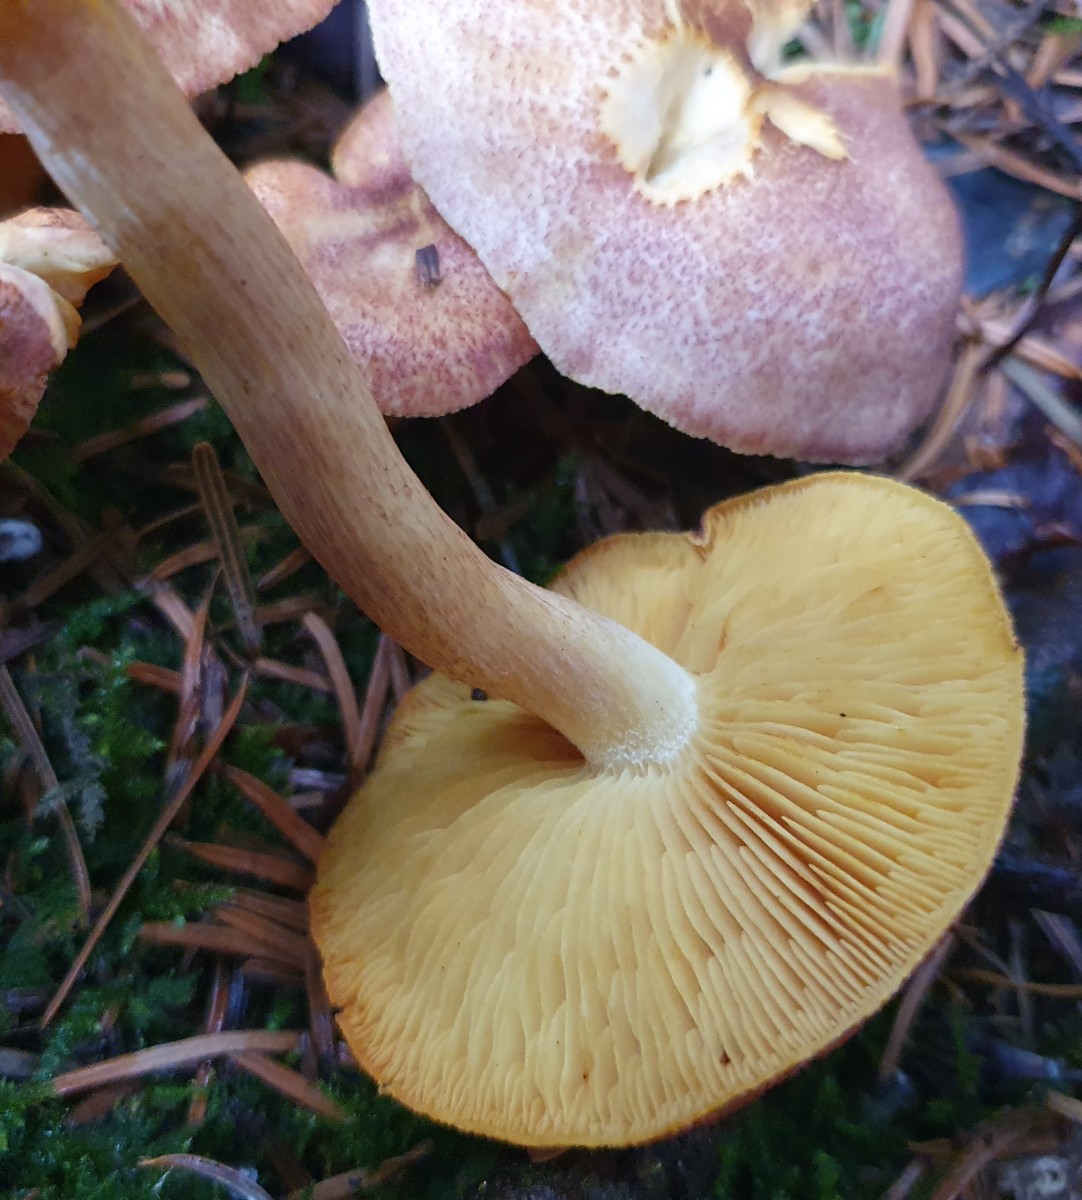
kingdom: Fungi
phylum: Basidiomycota
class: Agaricomycetes
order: Agaricales
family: Tricholomataceae
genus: Tricholomopsis
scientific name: Tricholomopsis rutilans
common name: purpur-væbnerhat
